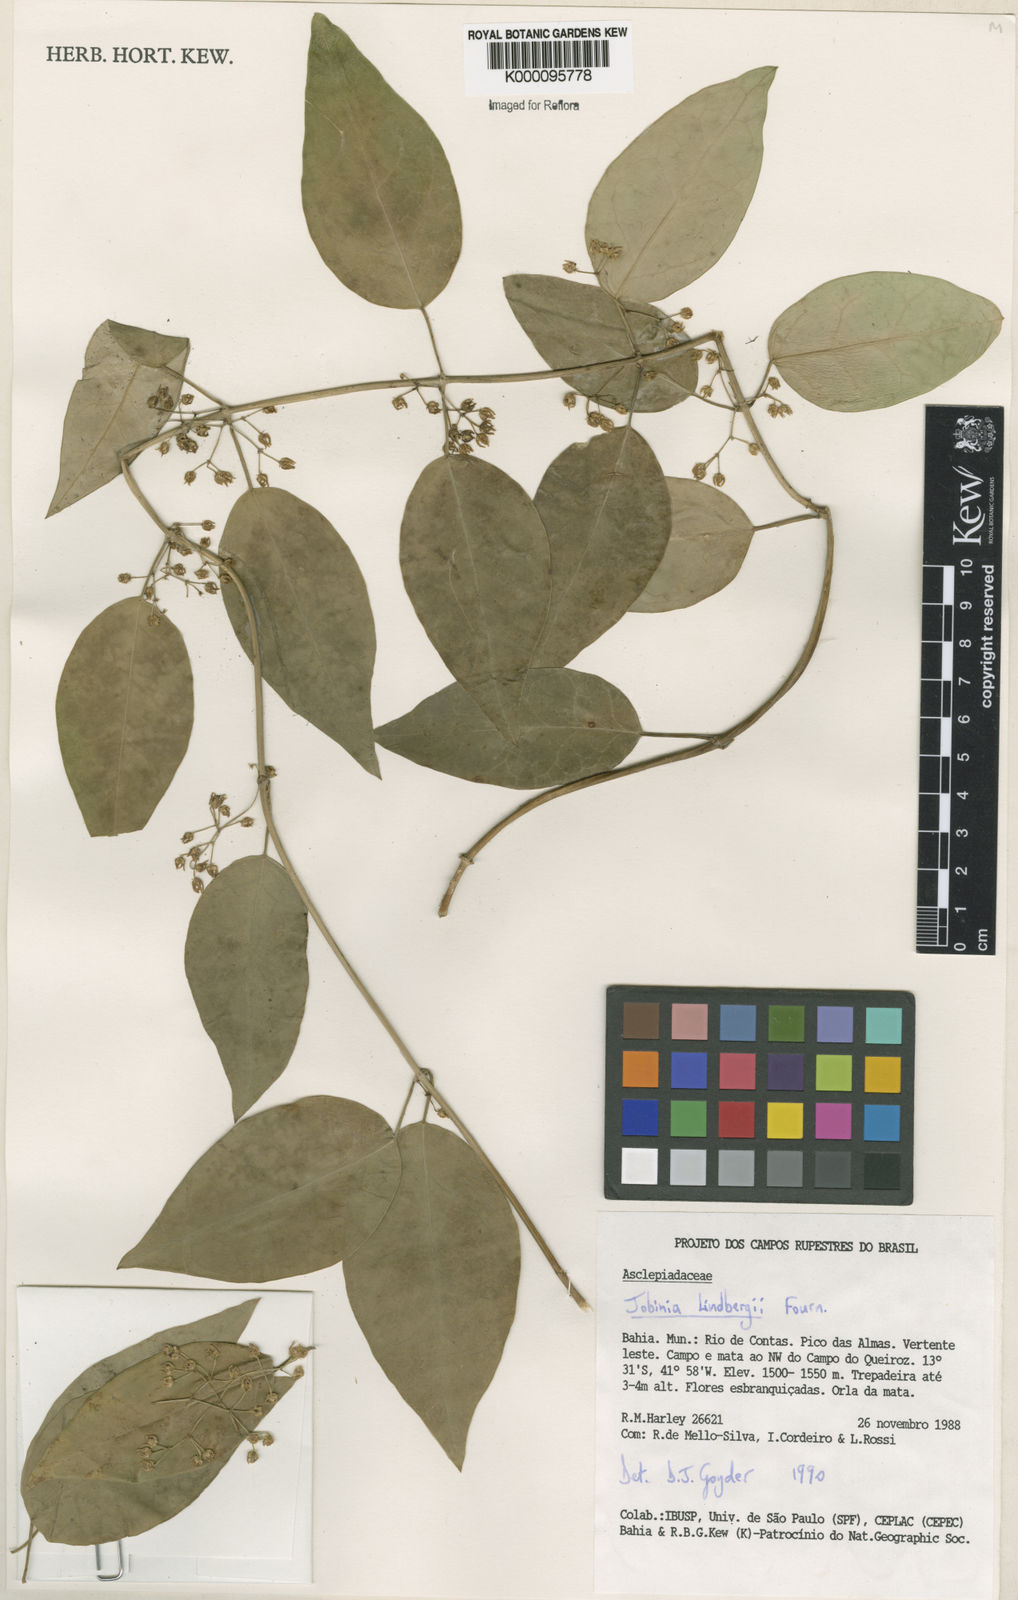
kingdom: Plantae
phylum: Tracheophyta
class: Magnoliopsida
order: Gentianales
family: Apocynaceae
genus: Jobinia
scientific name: Jobinia lindbergii
